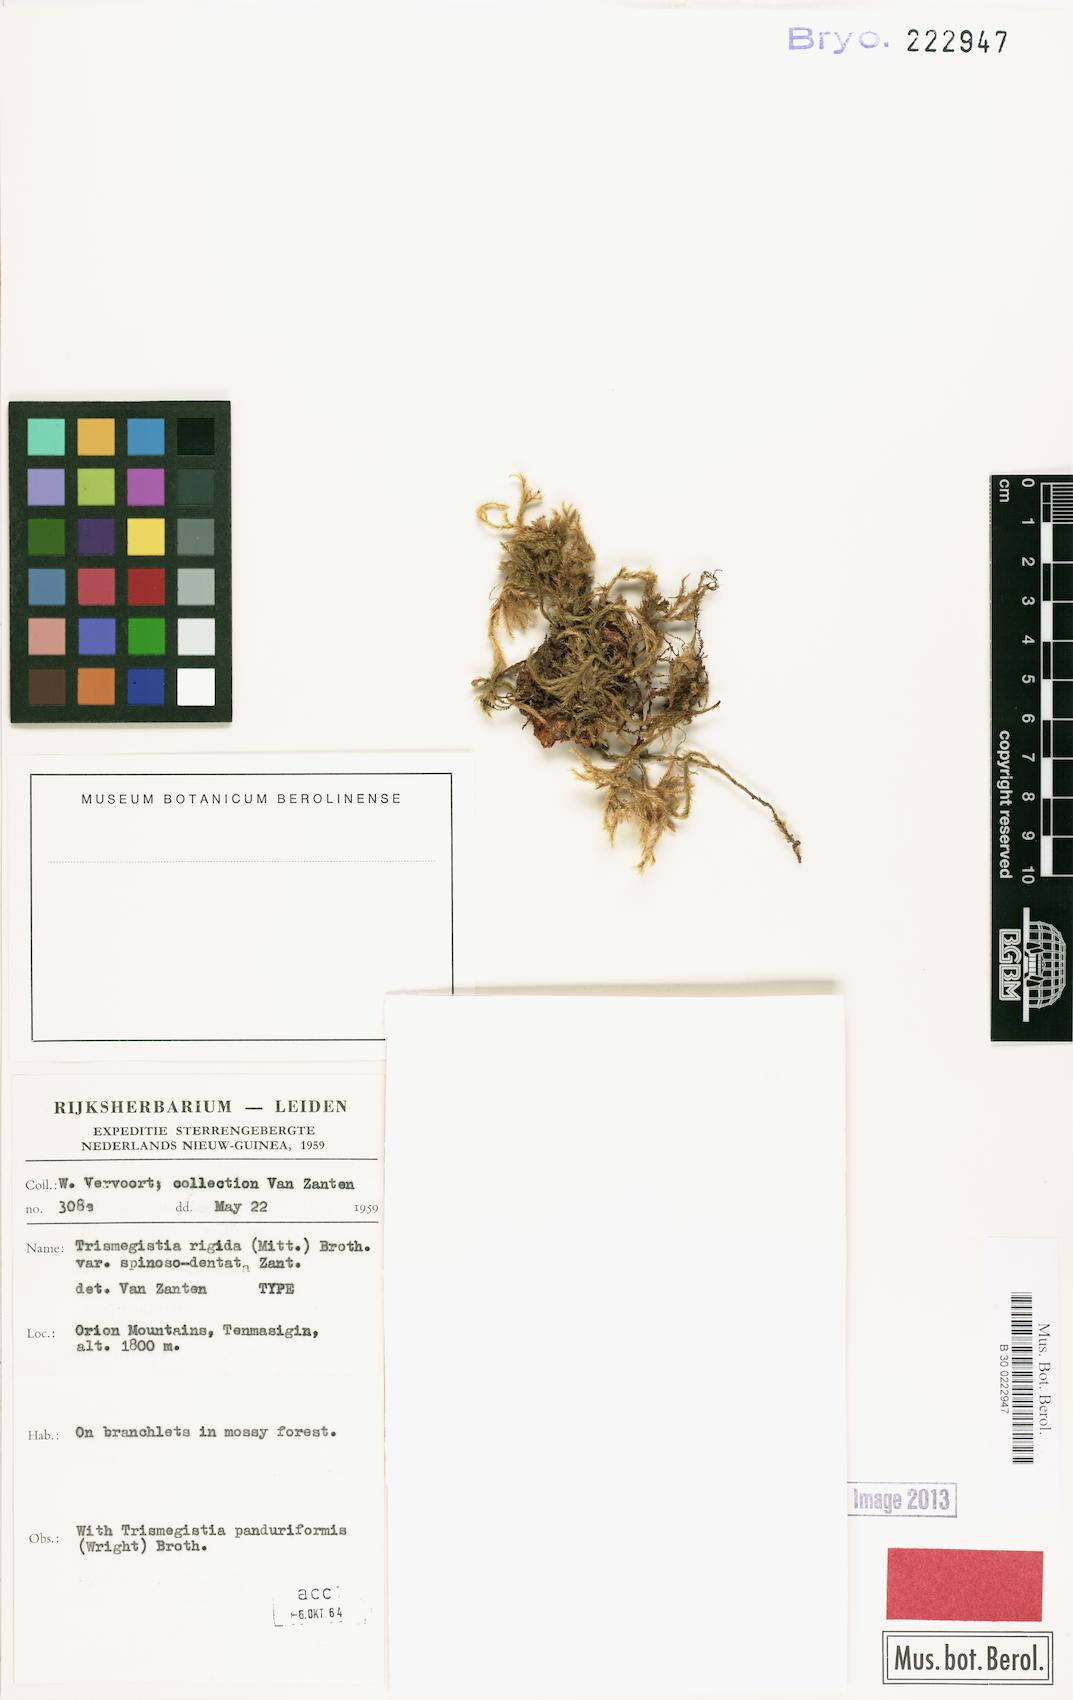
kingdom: Plantae
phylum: Bryophyta
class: Bryopsida
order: Hypnales
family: Pylaisiadelphaceae
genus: Trismegistia
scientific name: Trismegistia calderensis
